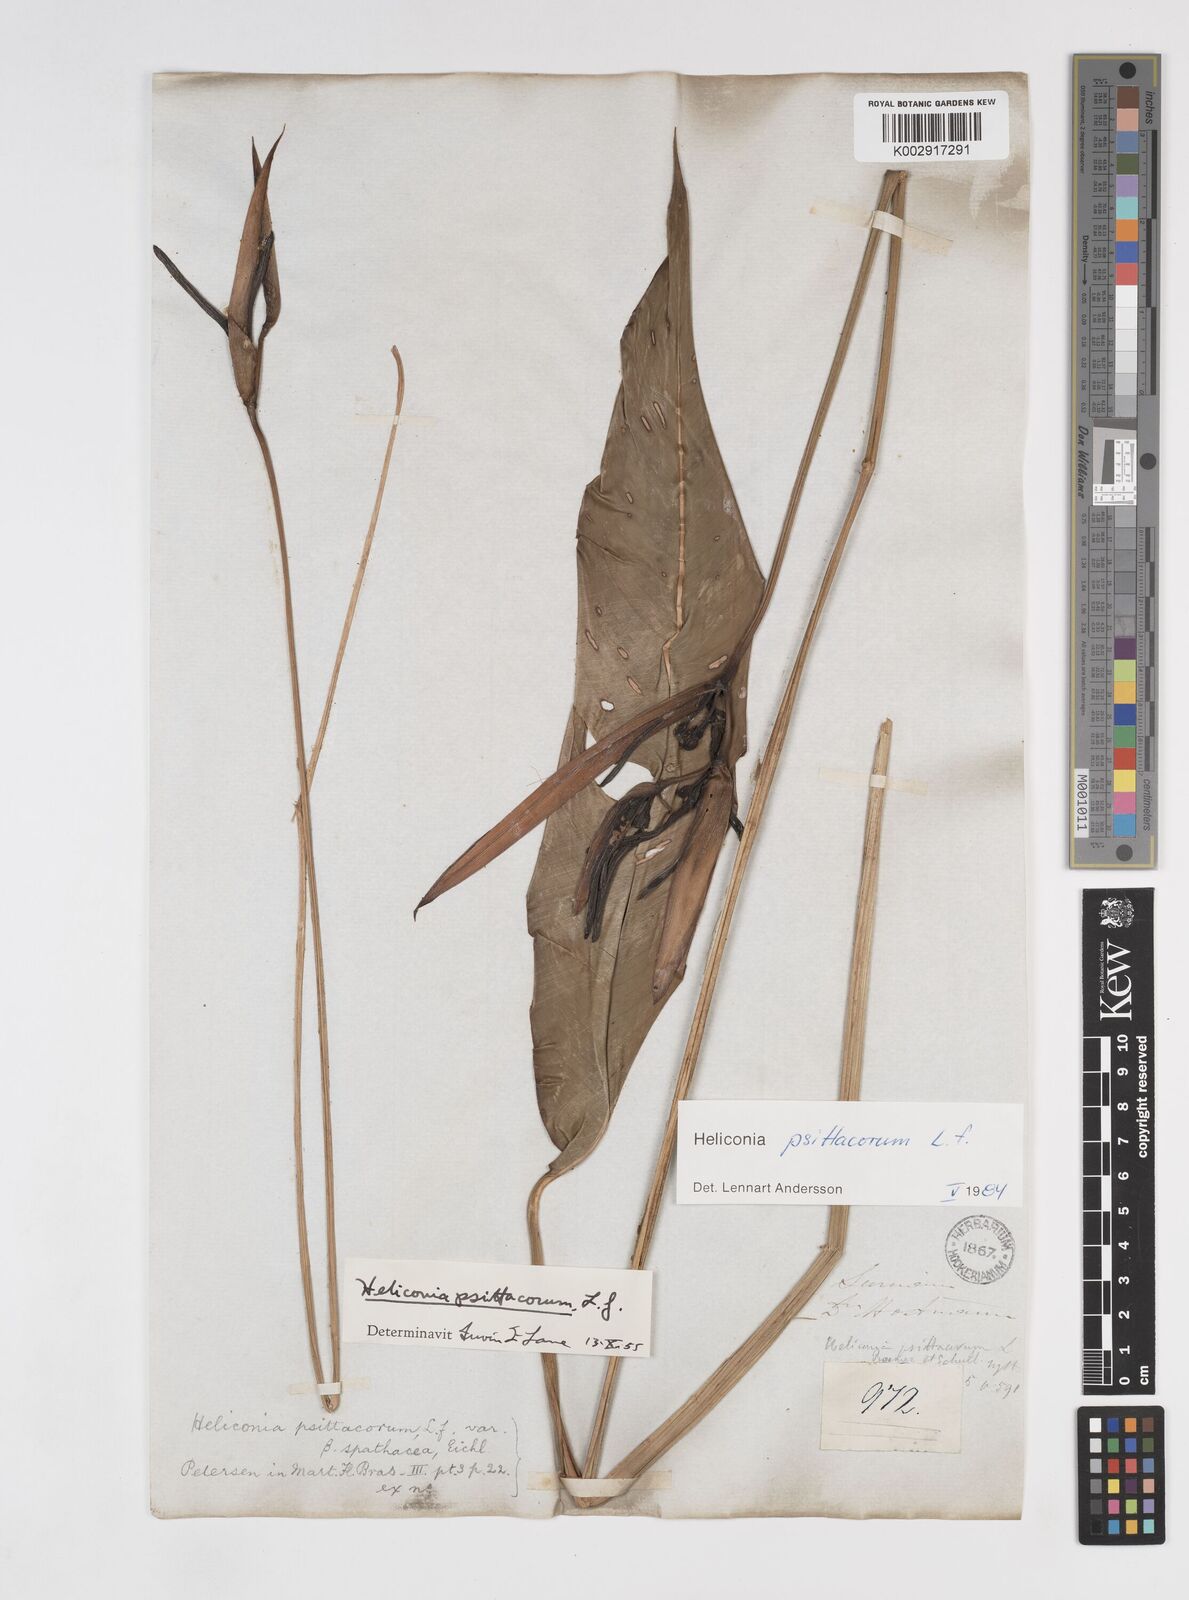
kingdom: Plantae
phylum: Tracheophyta
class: Liliopsida
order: Zingiberales
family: Heliconiaceae
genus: Heliconia
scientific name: Heliconia psittacorum
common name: Parrot's-flower
